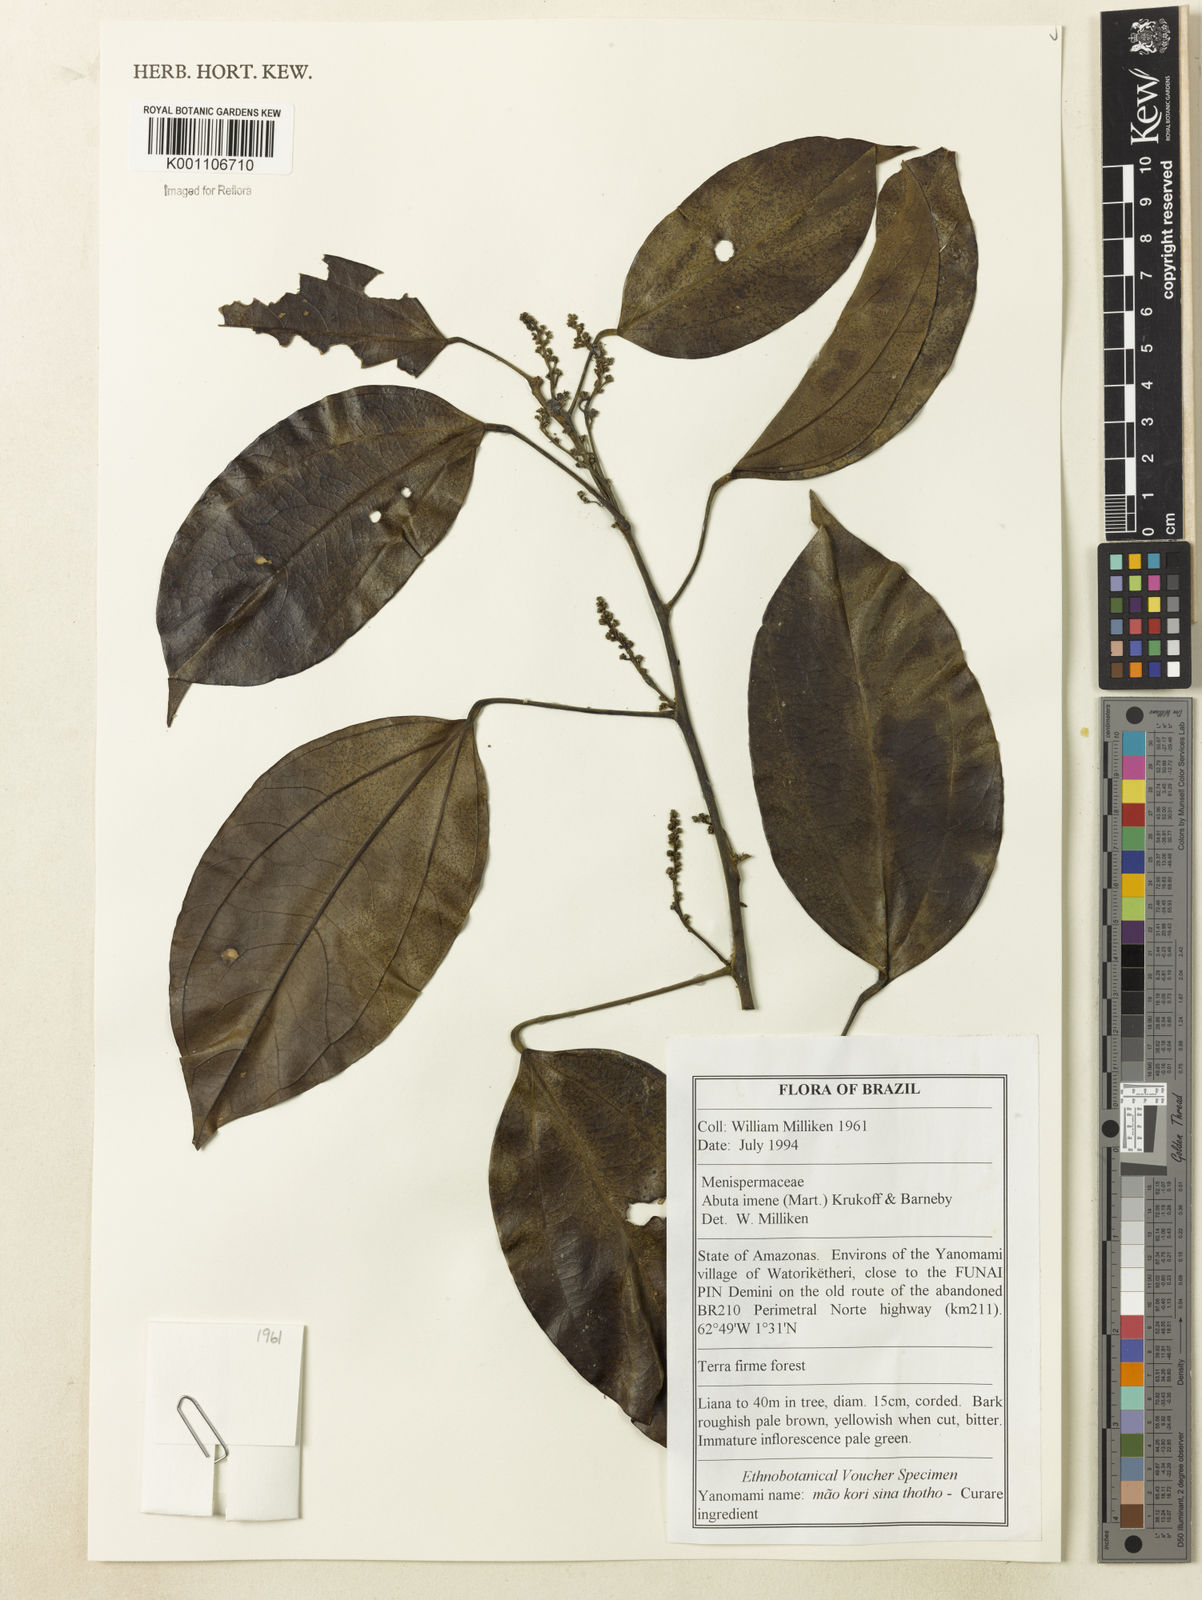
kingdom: Plantae
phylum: Tracheophyta
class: Magnoliopsida
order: Ranunculales
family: Menispermaceae
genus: Abuta
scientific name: Abuta imene
